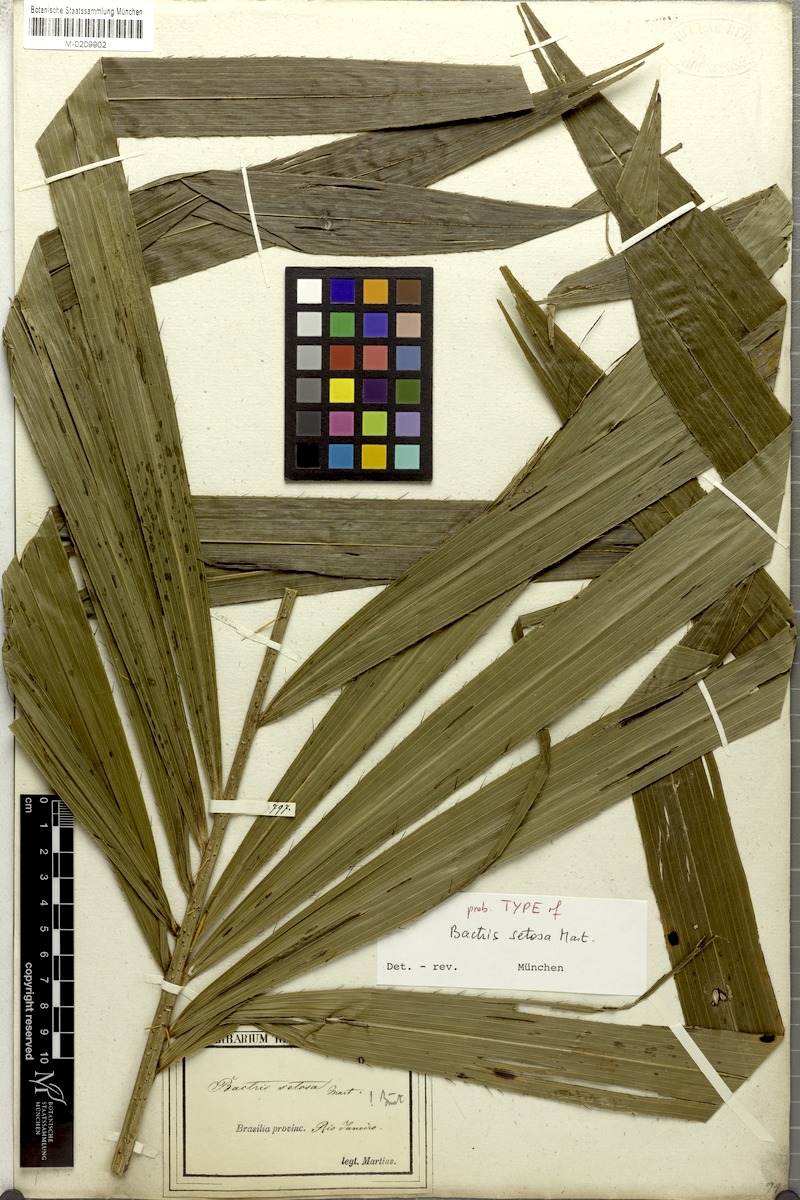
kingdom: Plantae
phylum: Tracheophyta
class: Liliopsida
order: Arecales
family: Arecaceae
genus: Bactris
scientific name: Bactris setosa
